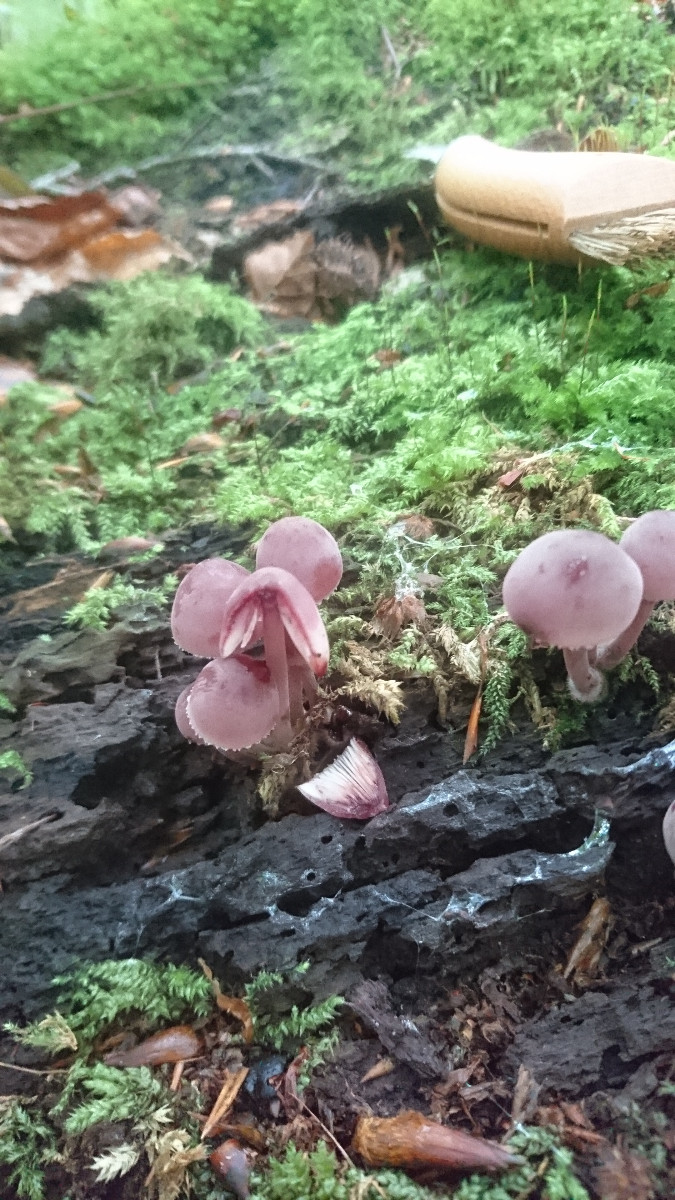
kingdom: Fungi
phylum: Basidiomycota
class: Agaricomycetes
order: Agaricales
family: Mycenaceae
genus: Mycena
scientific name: Mycena haematopus
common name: blødende huesvamp
